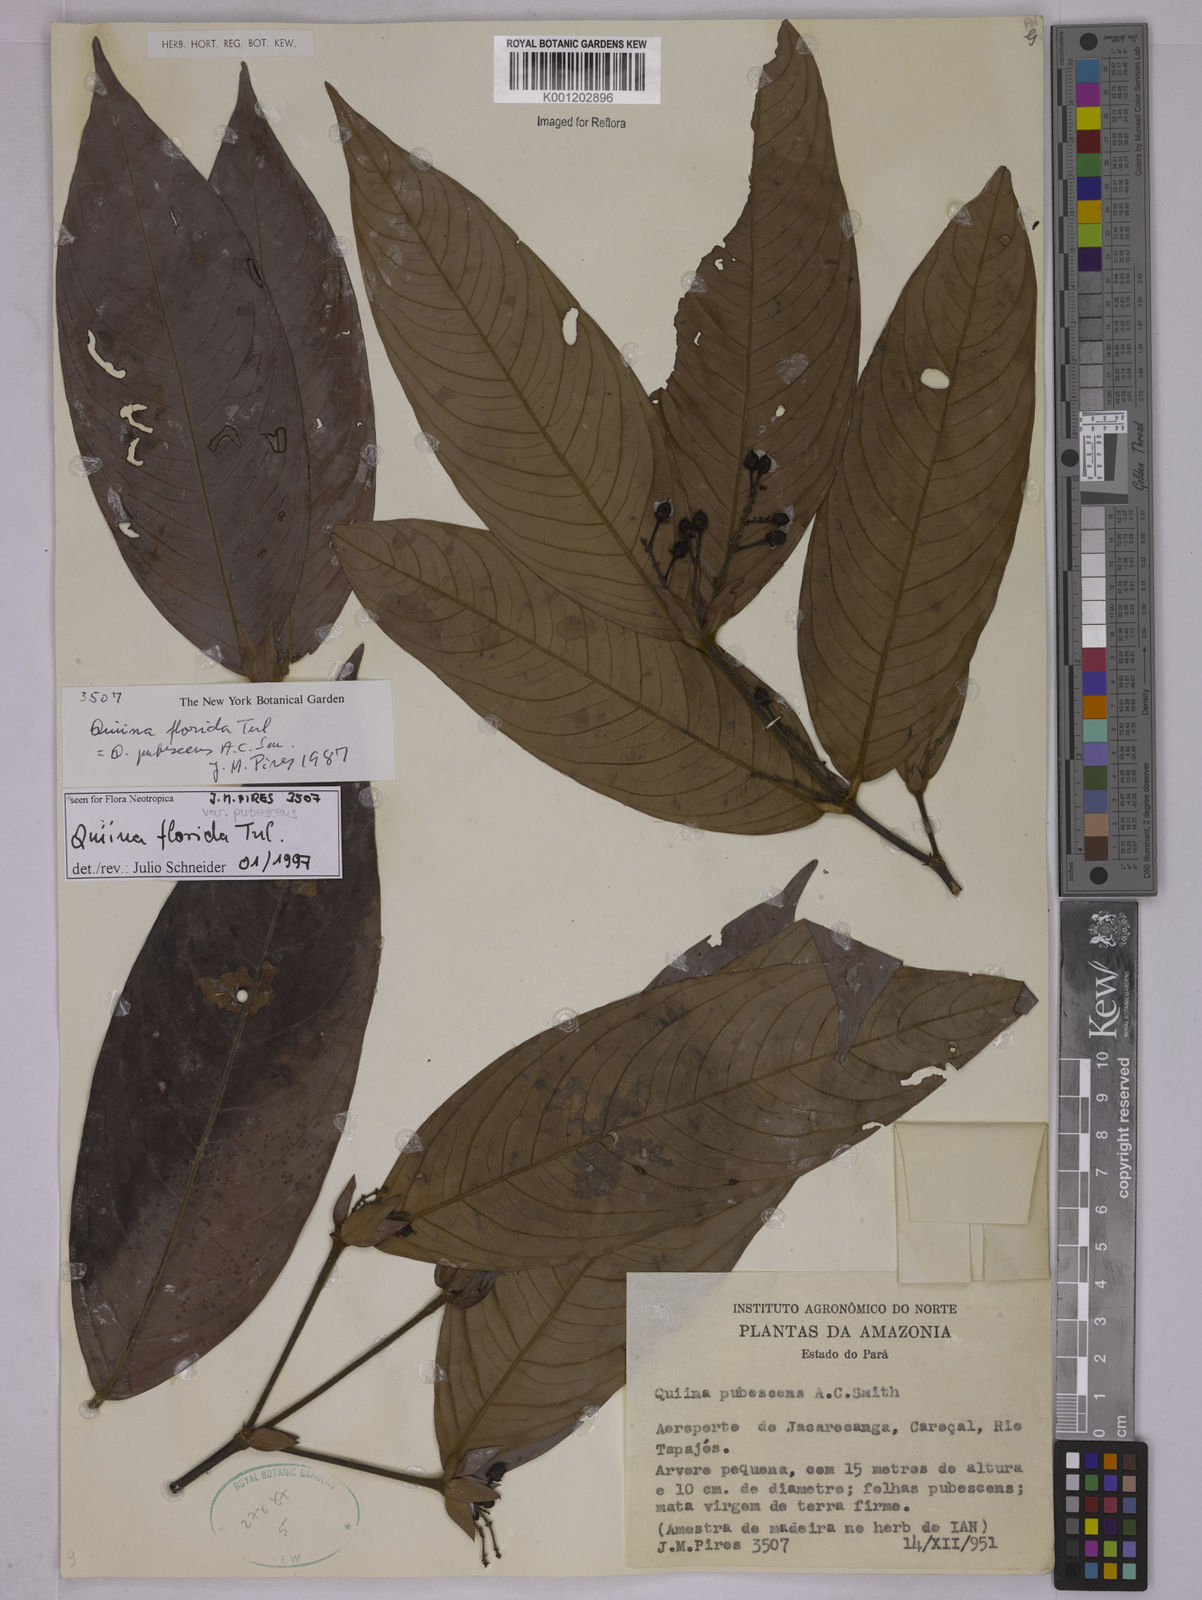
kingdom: Plantae
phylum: Tracheophyta
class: Magnoliopsida
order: Malpighiales
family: Quiinaceae
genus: Quiina
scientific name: Quiina florida
